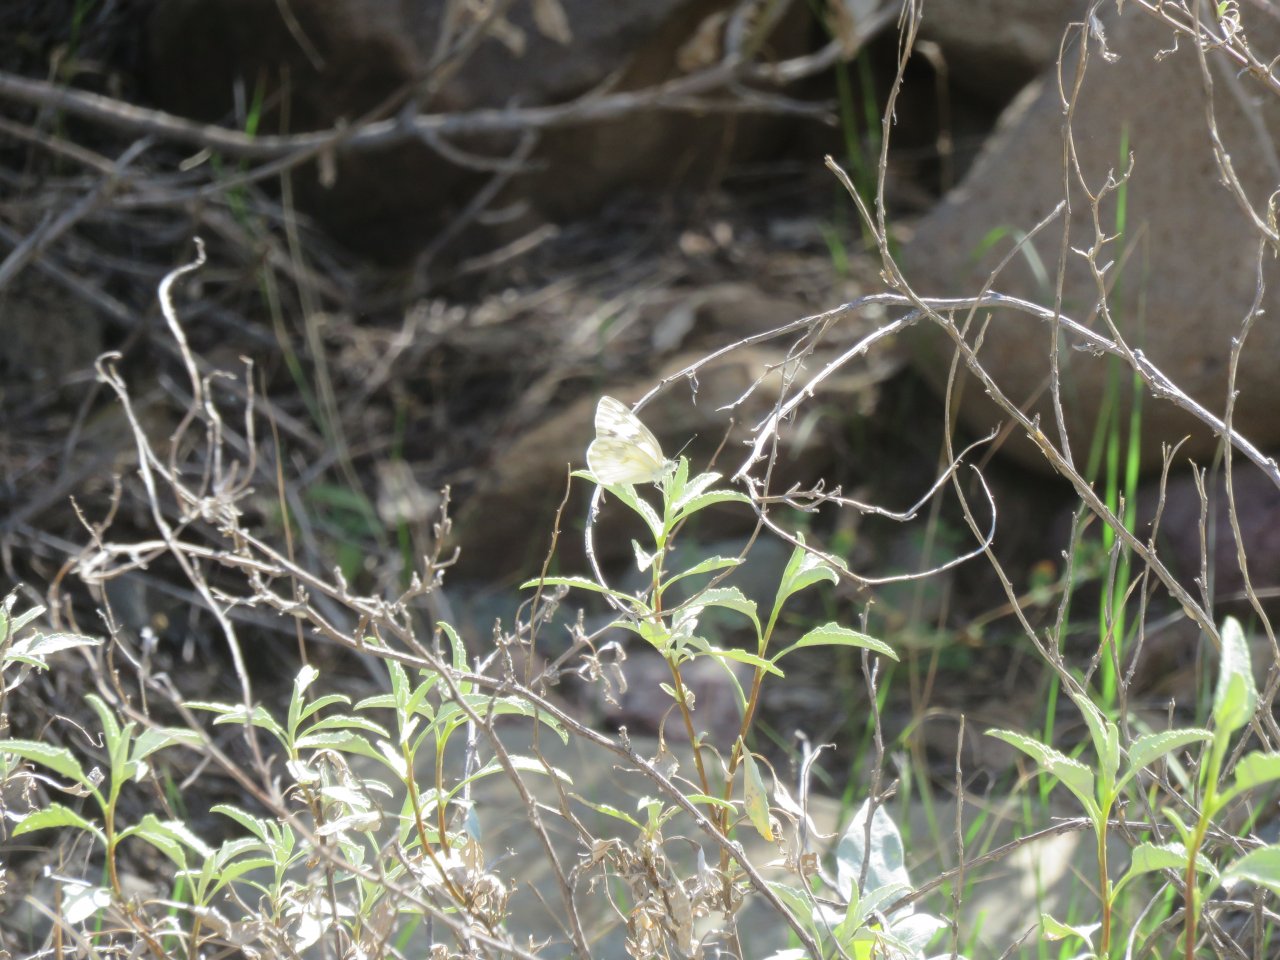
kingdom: Animalia
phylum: Arthropoda
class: Insecta
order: Lepidoptera
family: Pieridae
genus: Pontia
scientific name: Pontia protodice
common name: Checkered White
